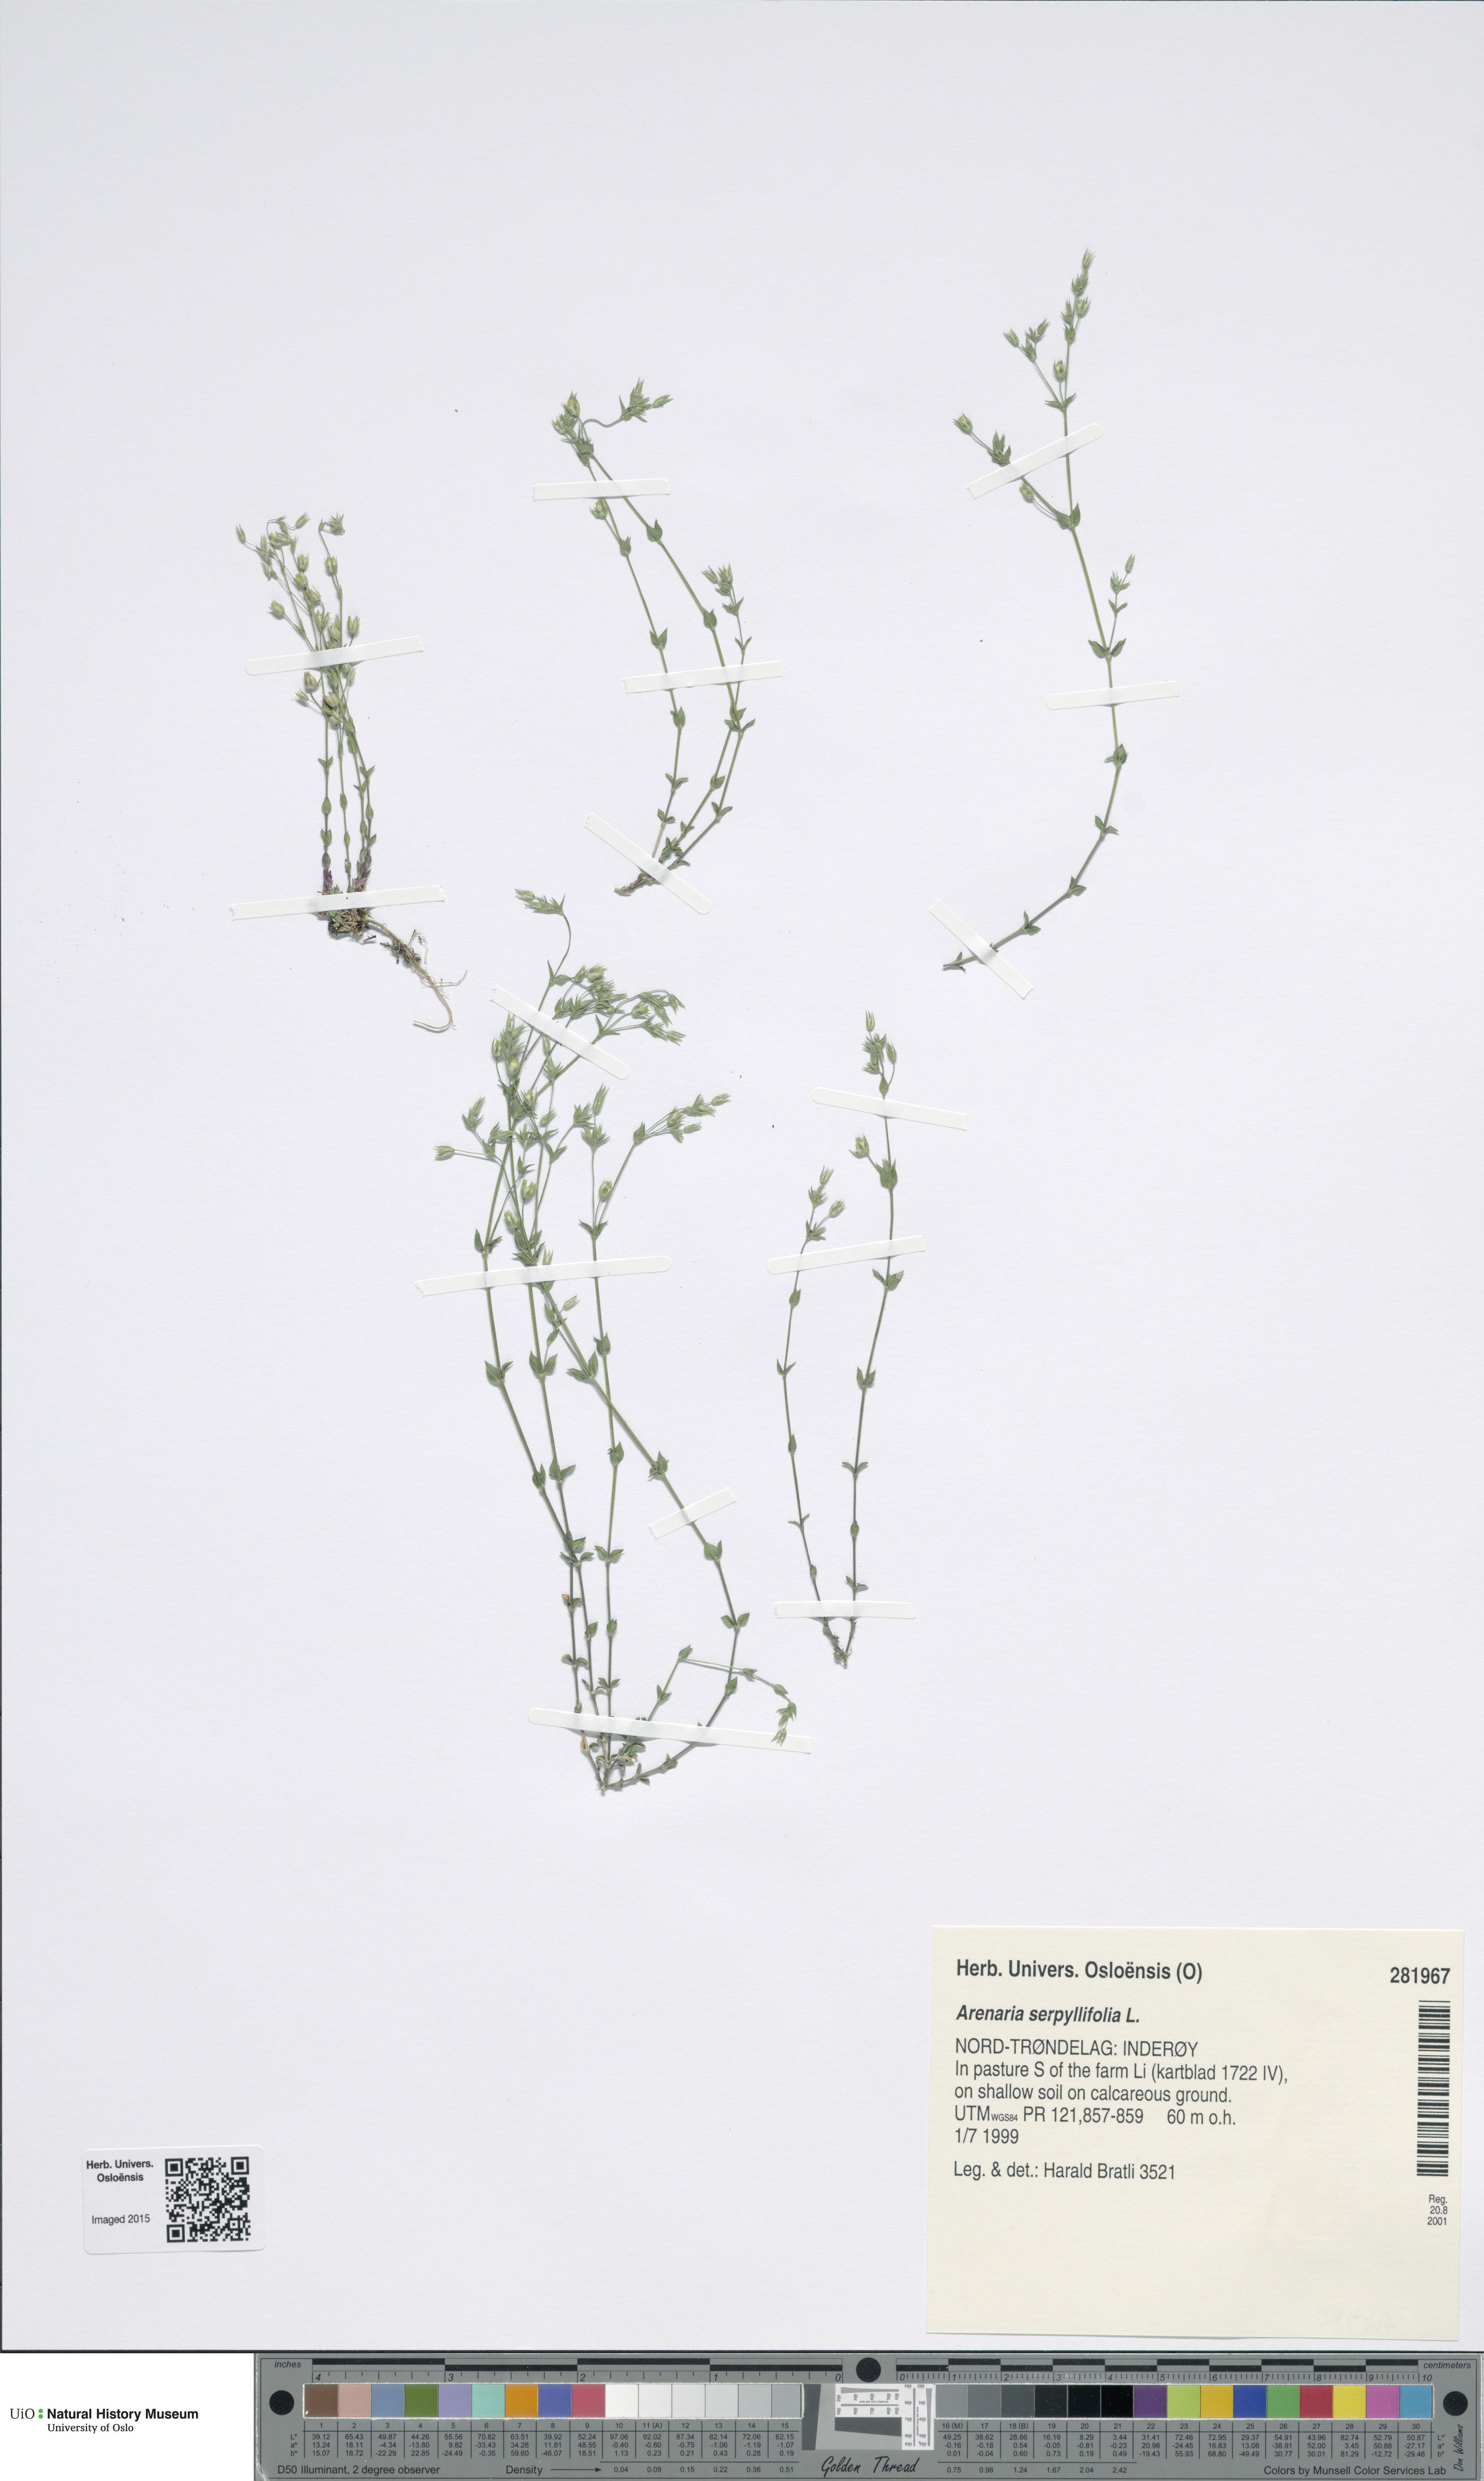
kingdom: Plantae
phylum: Tracheophyta
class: Magnoliopsida
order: Caryophyllales
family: Caryophyllaceae
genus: Arenaria
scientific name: Arenaria serpyllifolia
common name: Thyme-leaved sandwort
